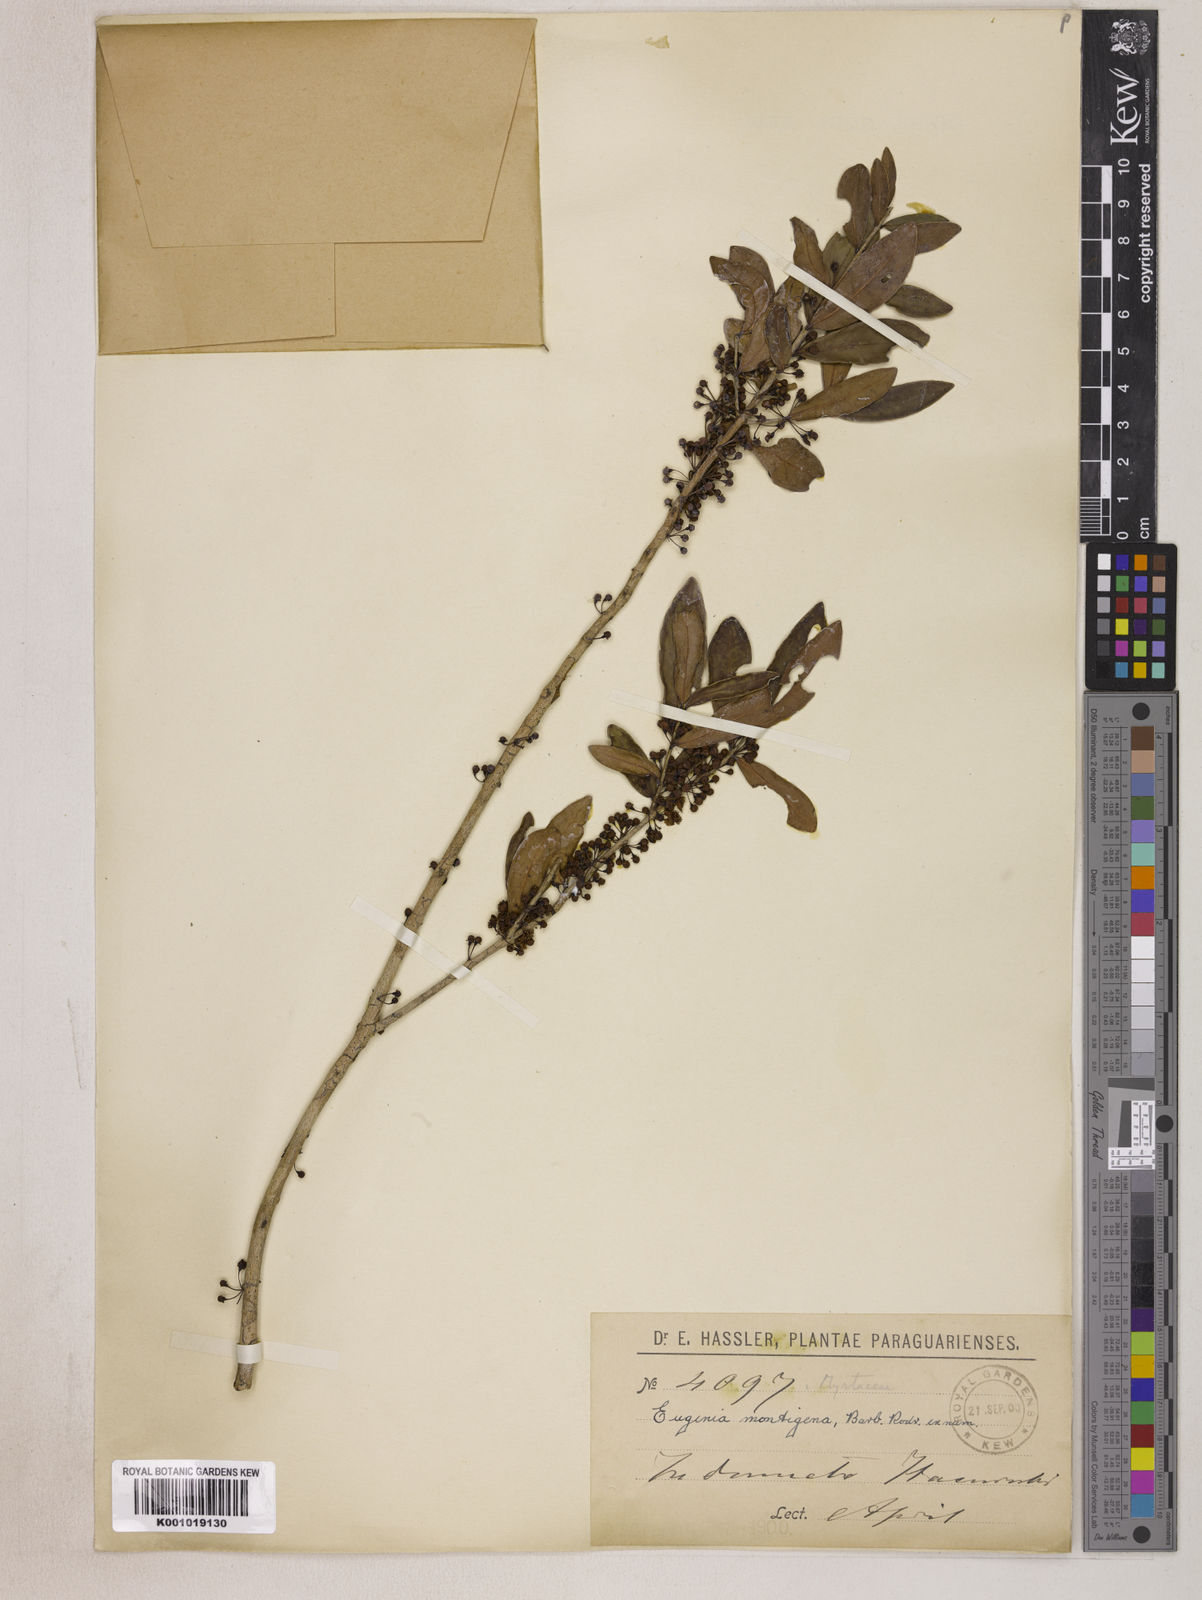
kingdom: Plantae
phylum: Tracheophyta
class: Magnoliopsida
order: Myrtales
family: Myrtaceae
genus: Eugenia
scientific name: Eugenia pitanga
